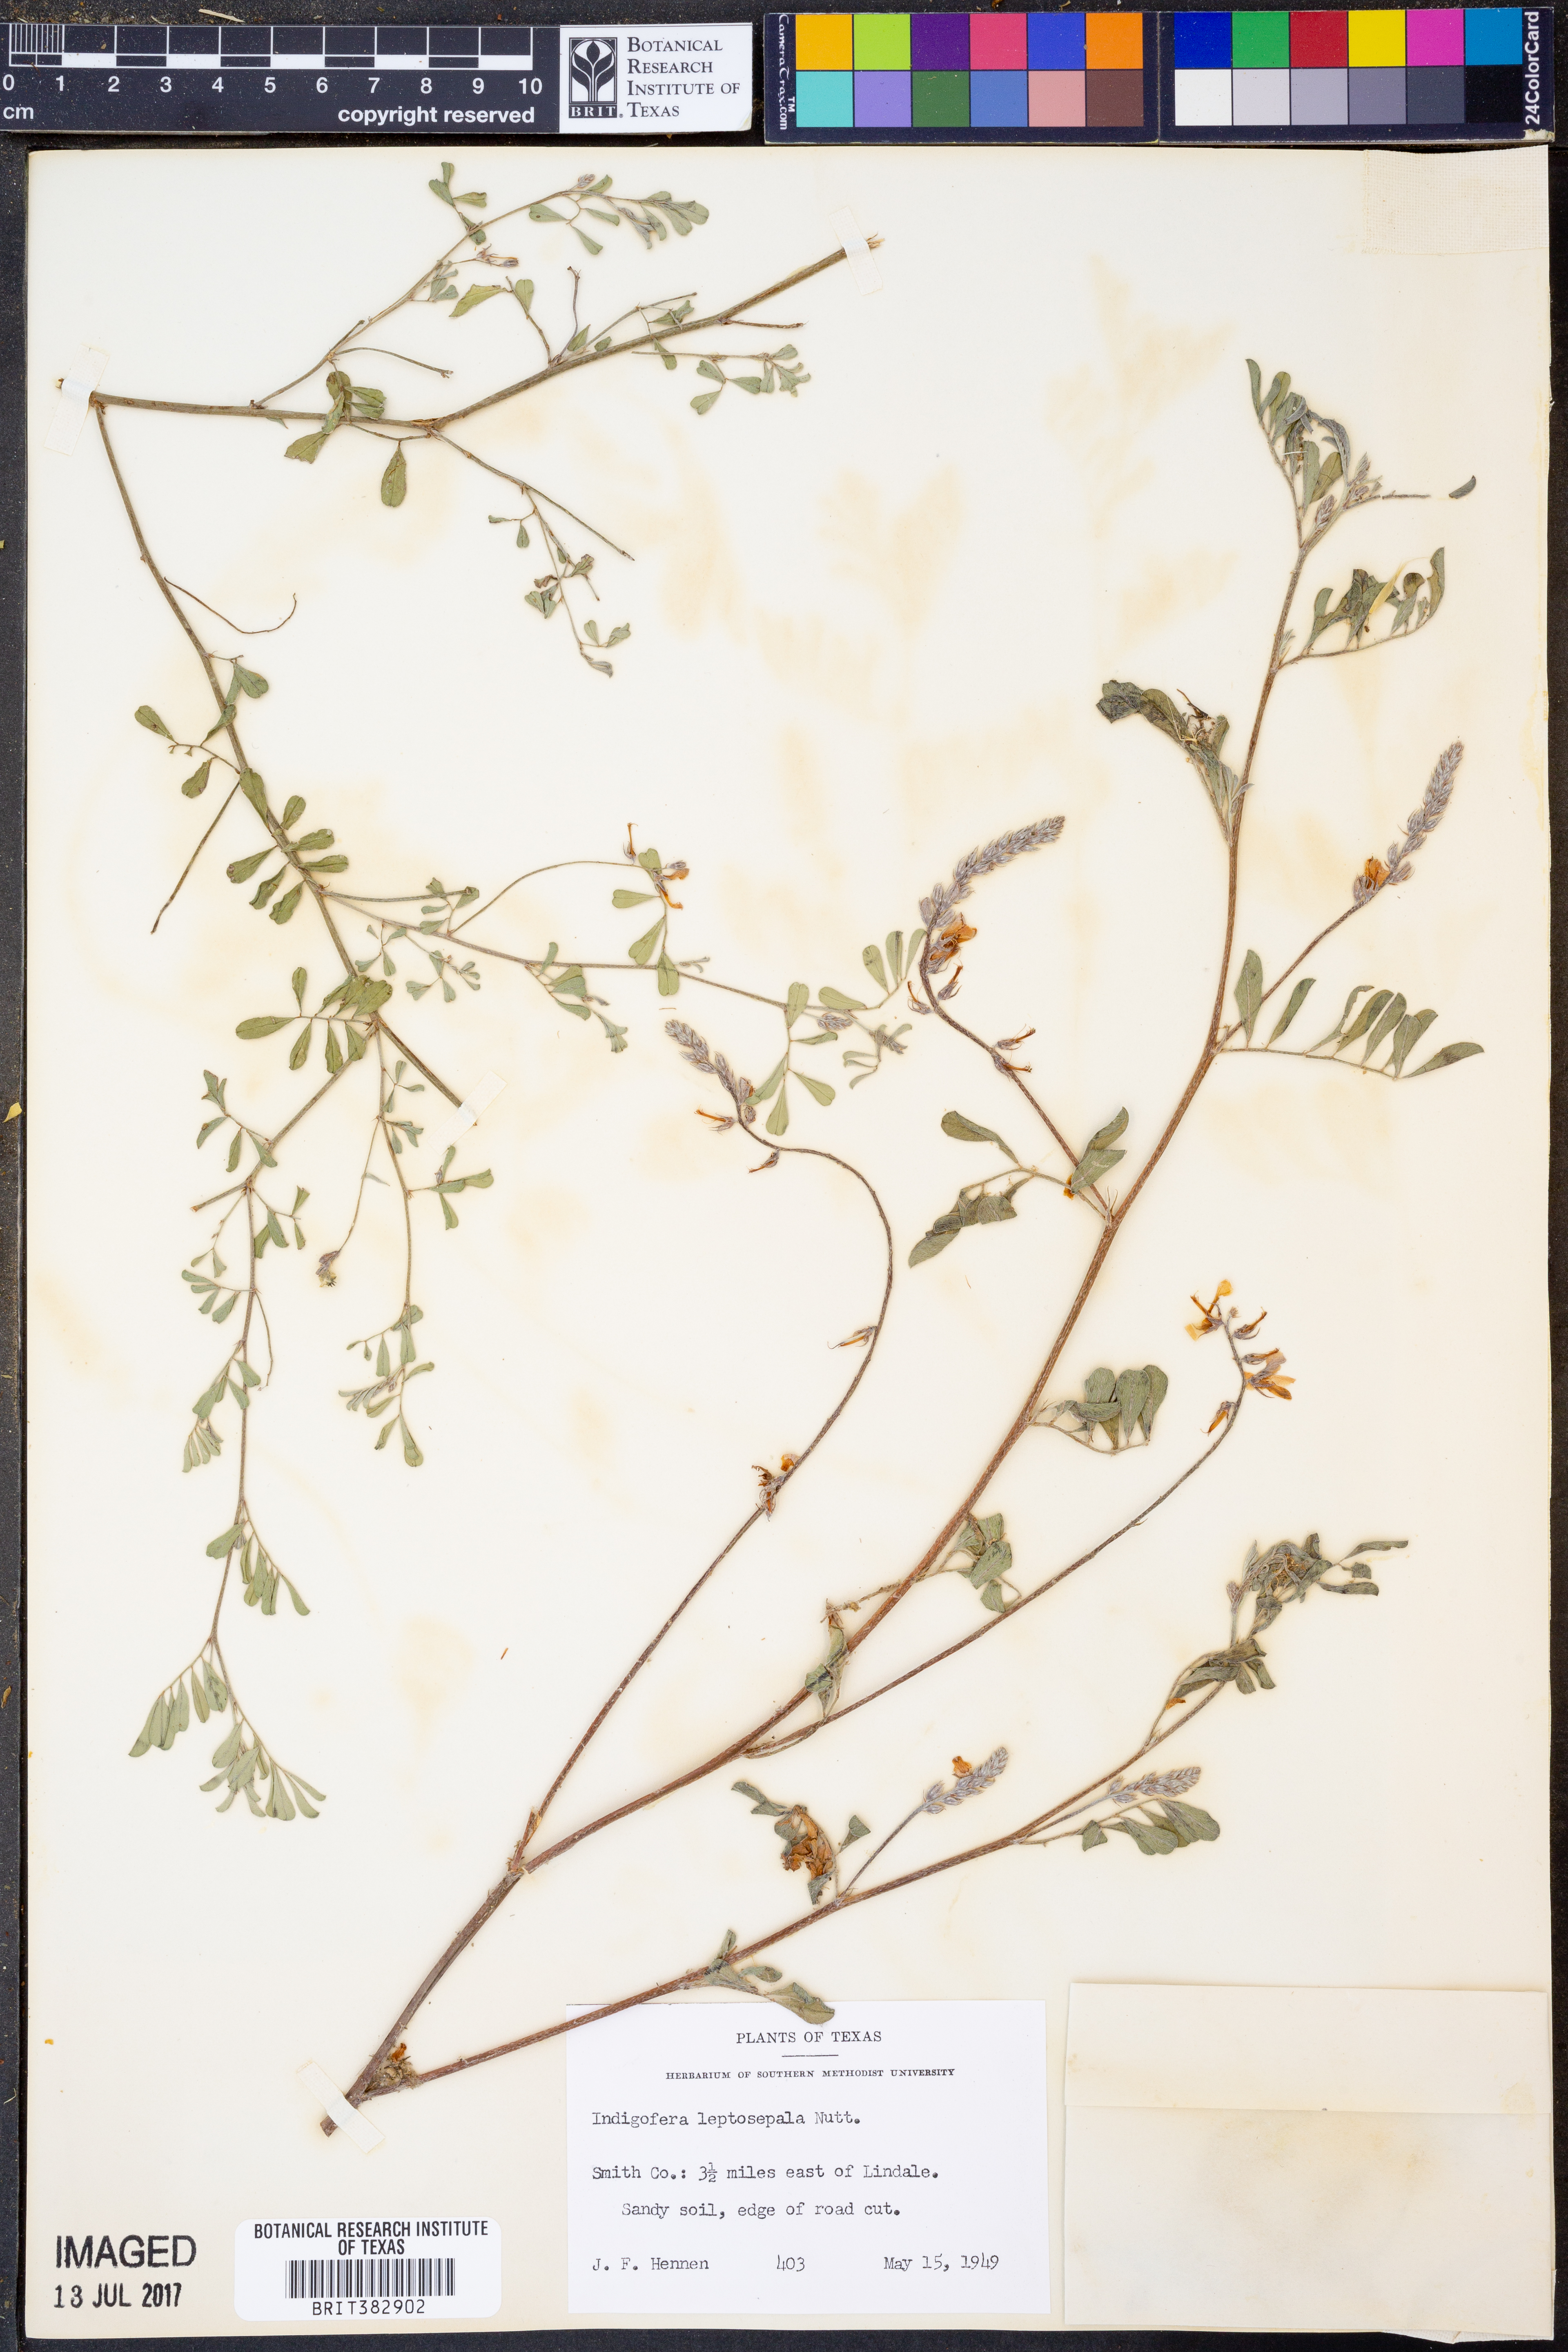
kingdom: Plantae
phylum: Tracheophyta
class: Magnoliopsida
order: Fabales
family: Fabaceae
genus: Indigofera
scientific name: Indigofera argutidens
